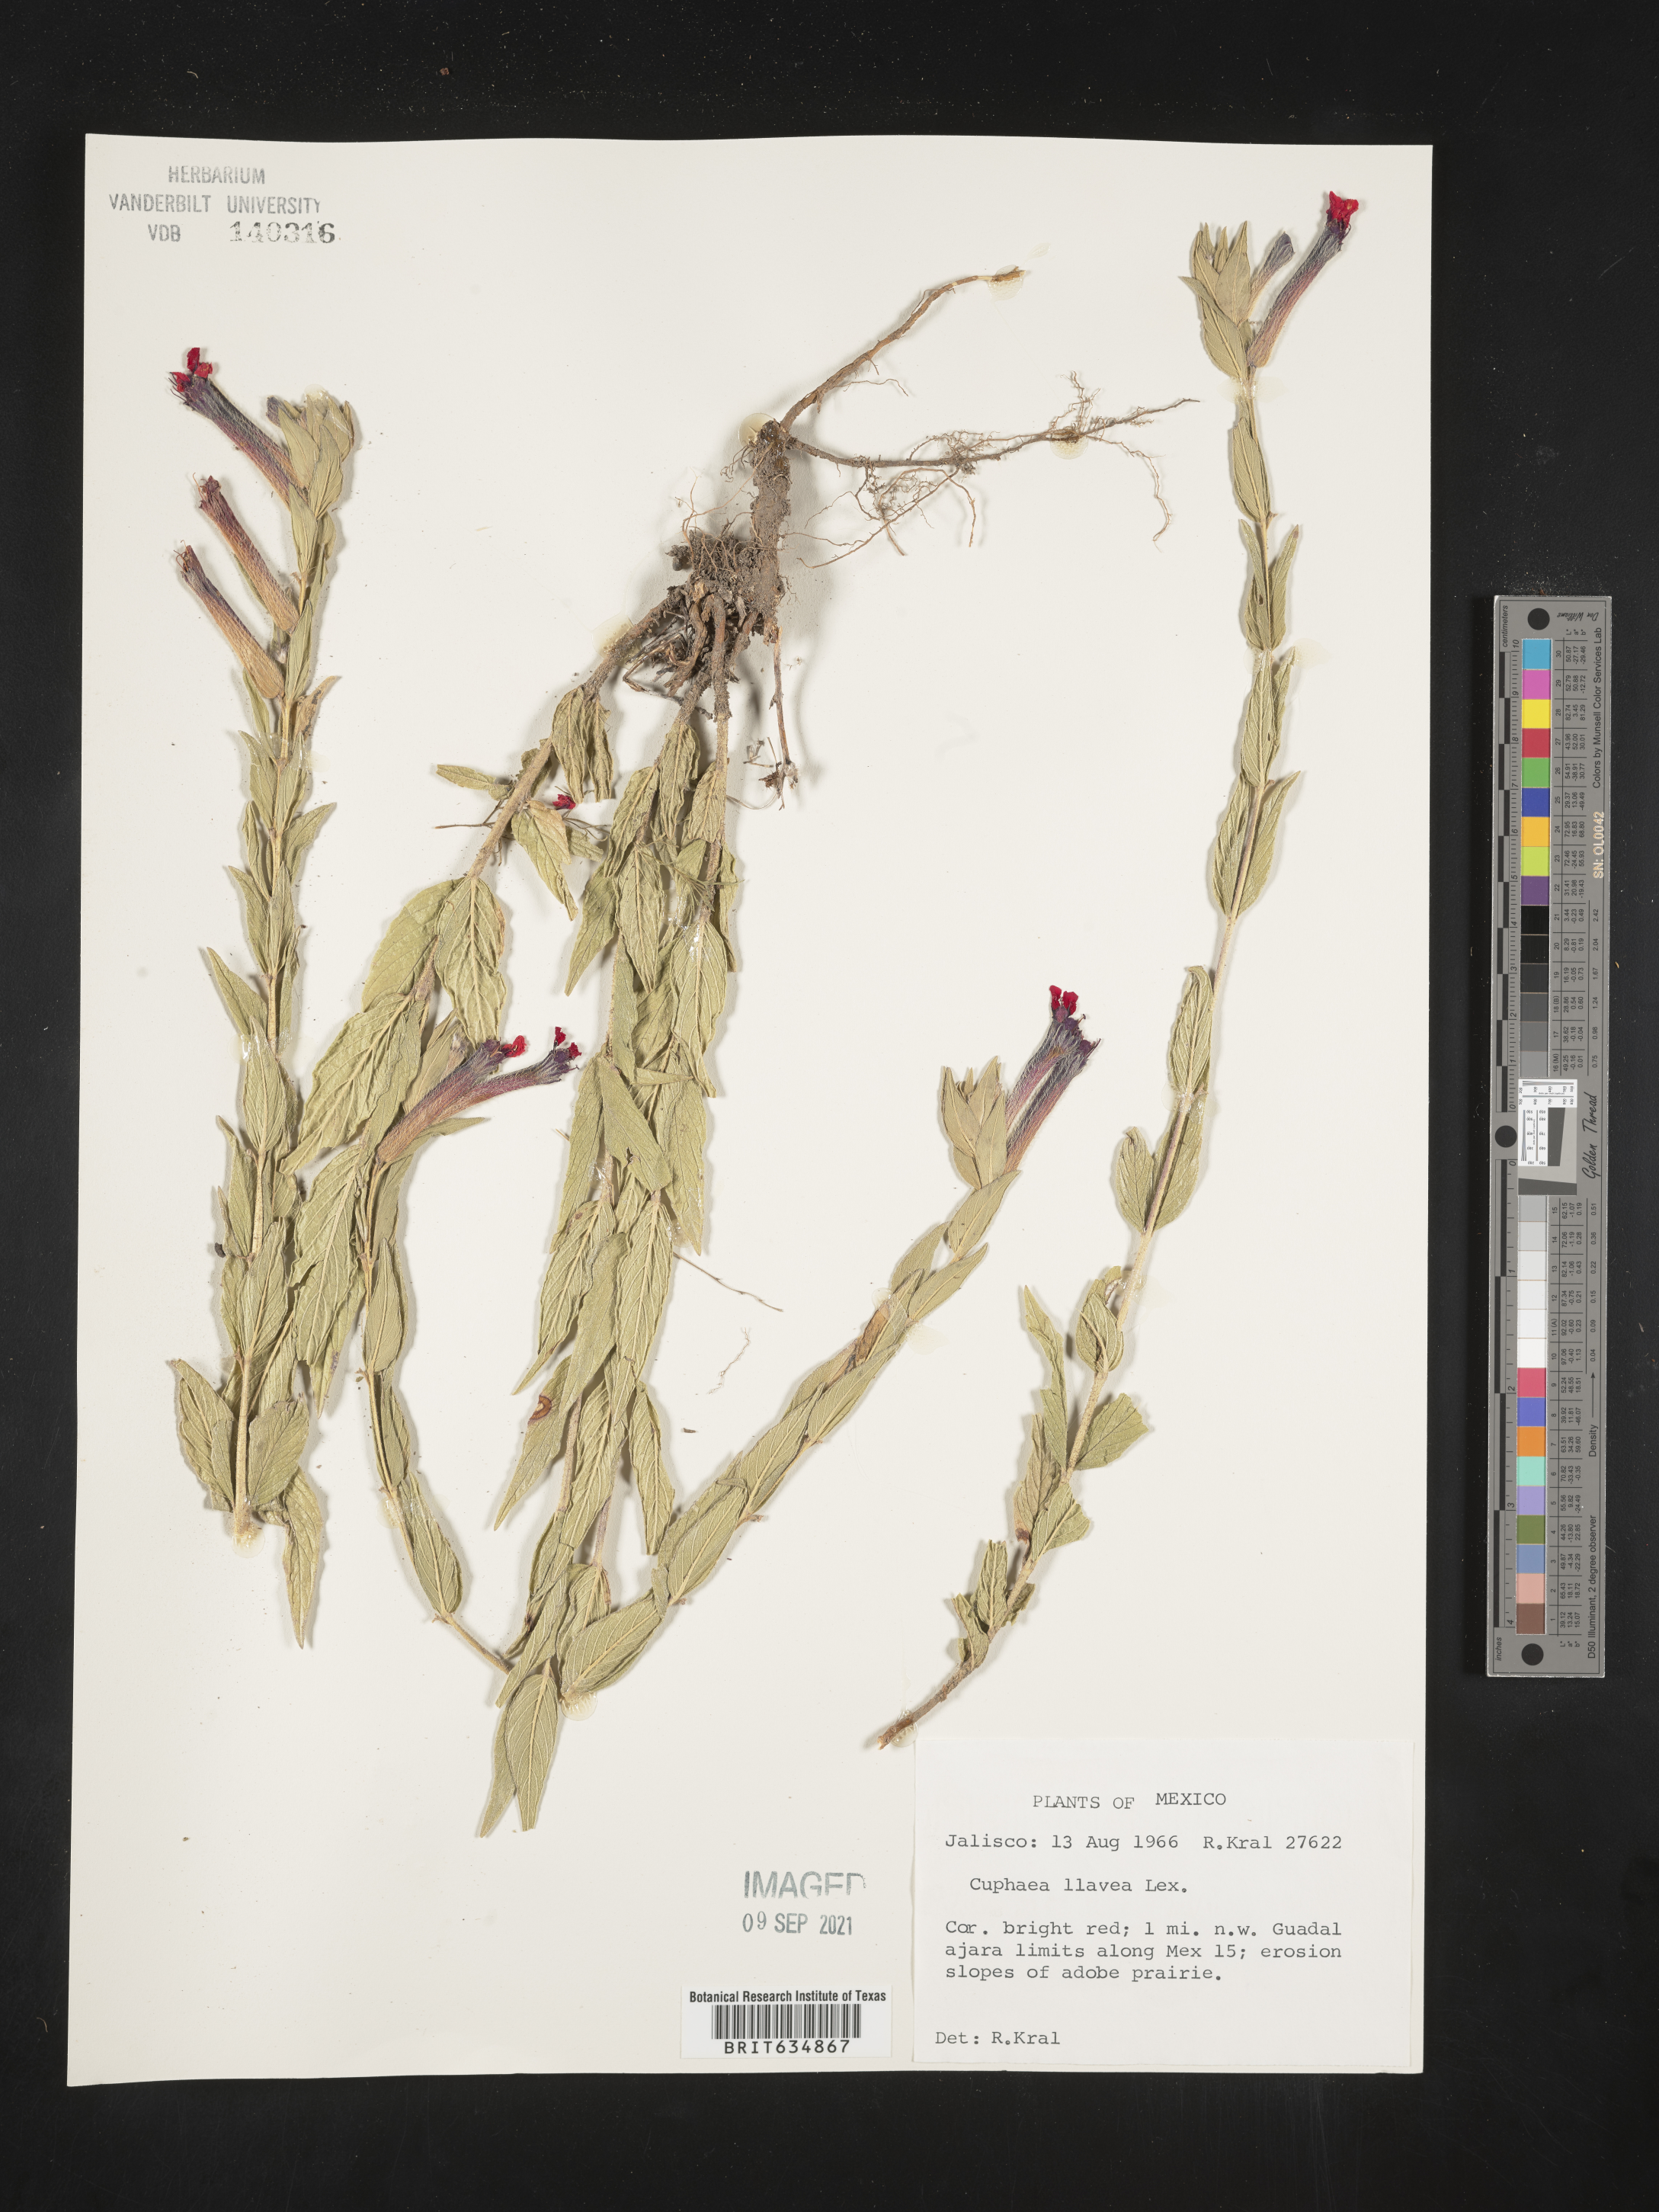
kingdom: Plantae
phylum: Tracheophyta
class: Magnoliopsida
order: Myrtales
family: Lythraceae
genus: Cuphea
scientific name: Cuphea
